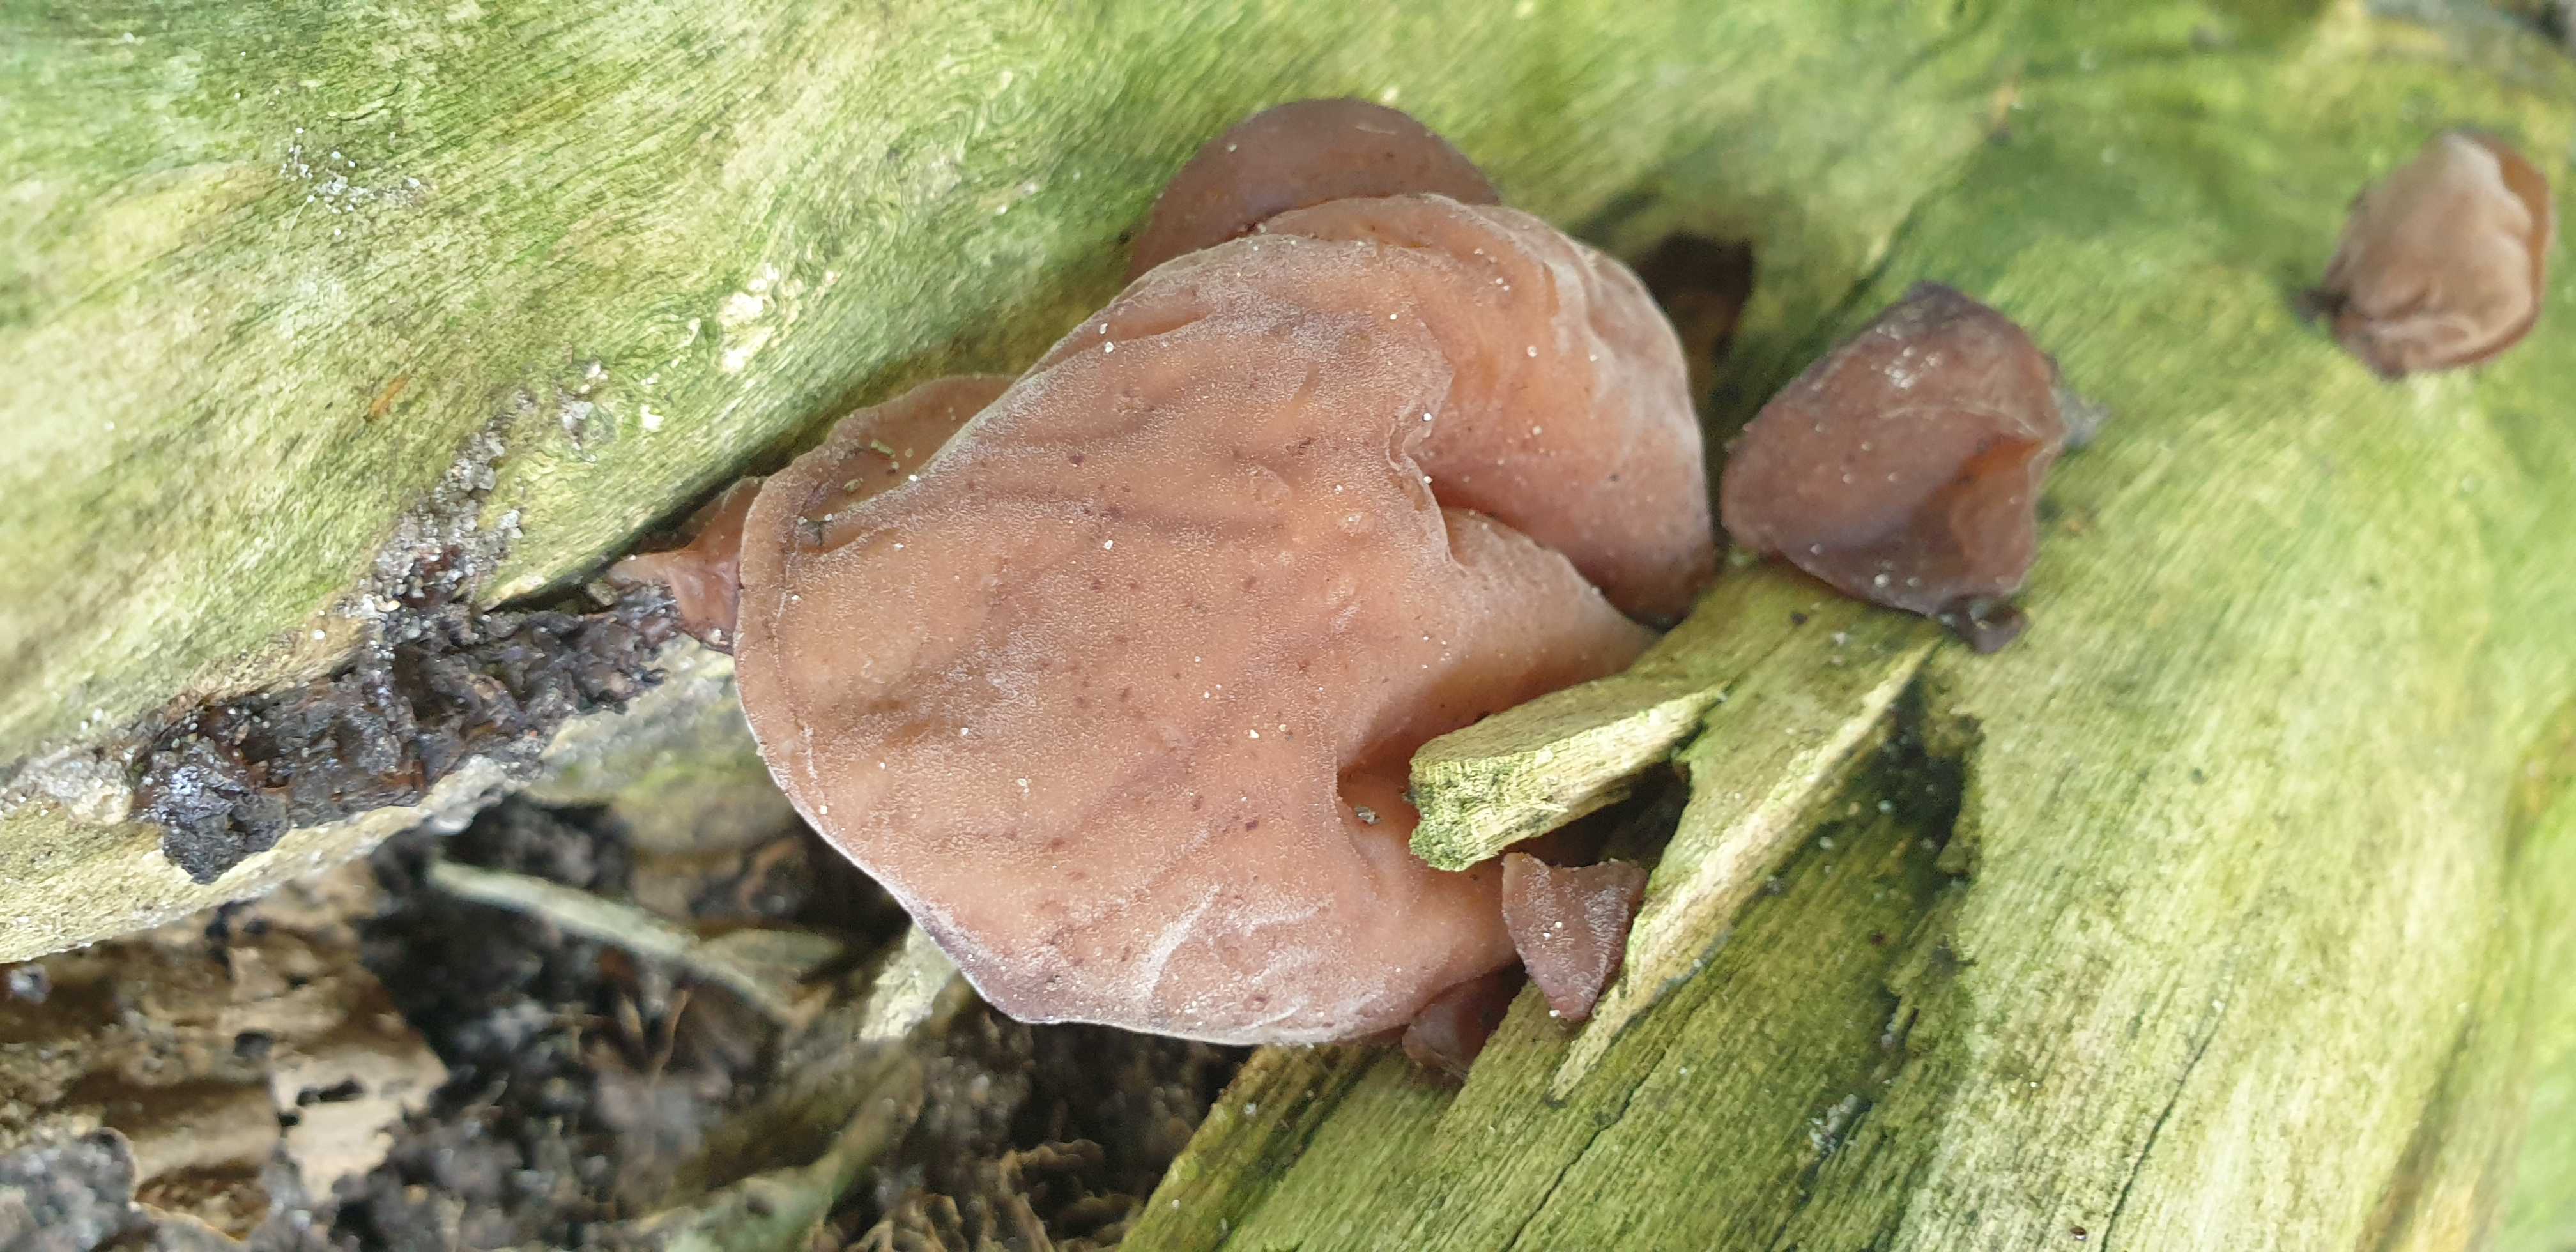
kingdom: Fungi
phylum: Basidiomycota
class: Agaricomycetes
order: Auriculariales
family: Auriculariaceae
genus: Auricularia
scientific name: Auricularia auricula-judae
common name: almindelig judasøre
